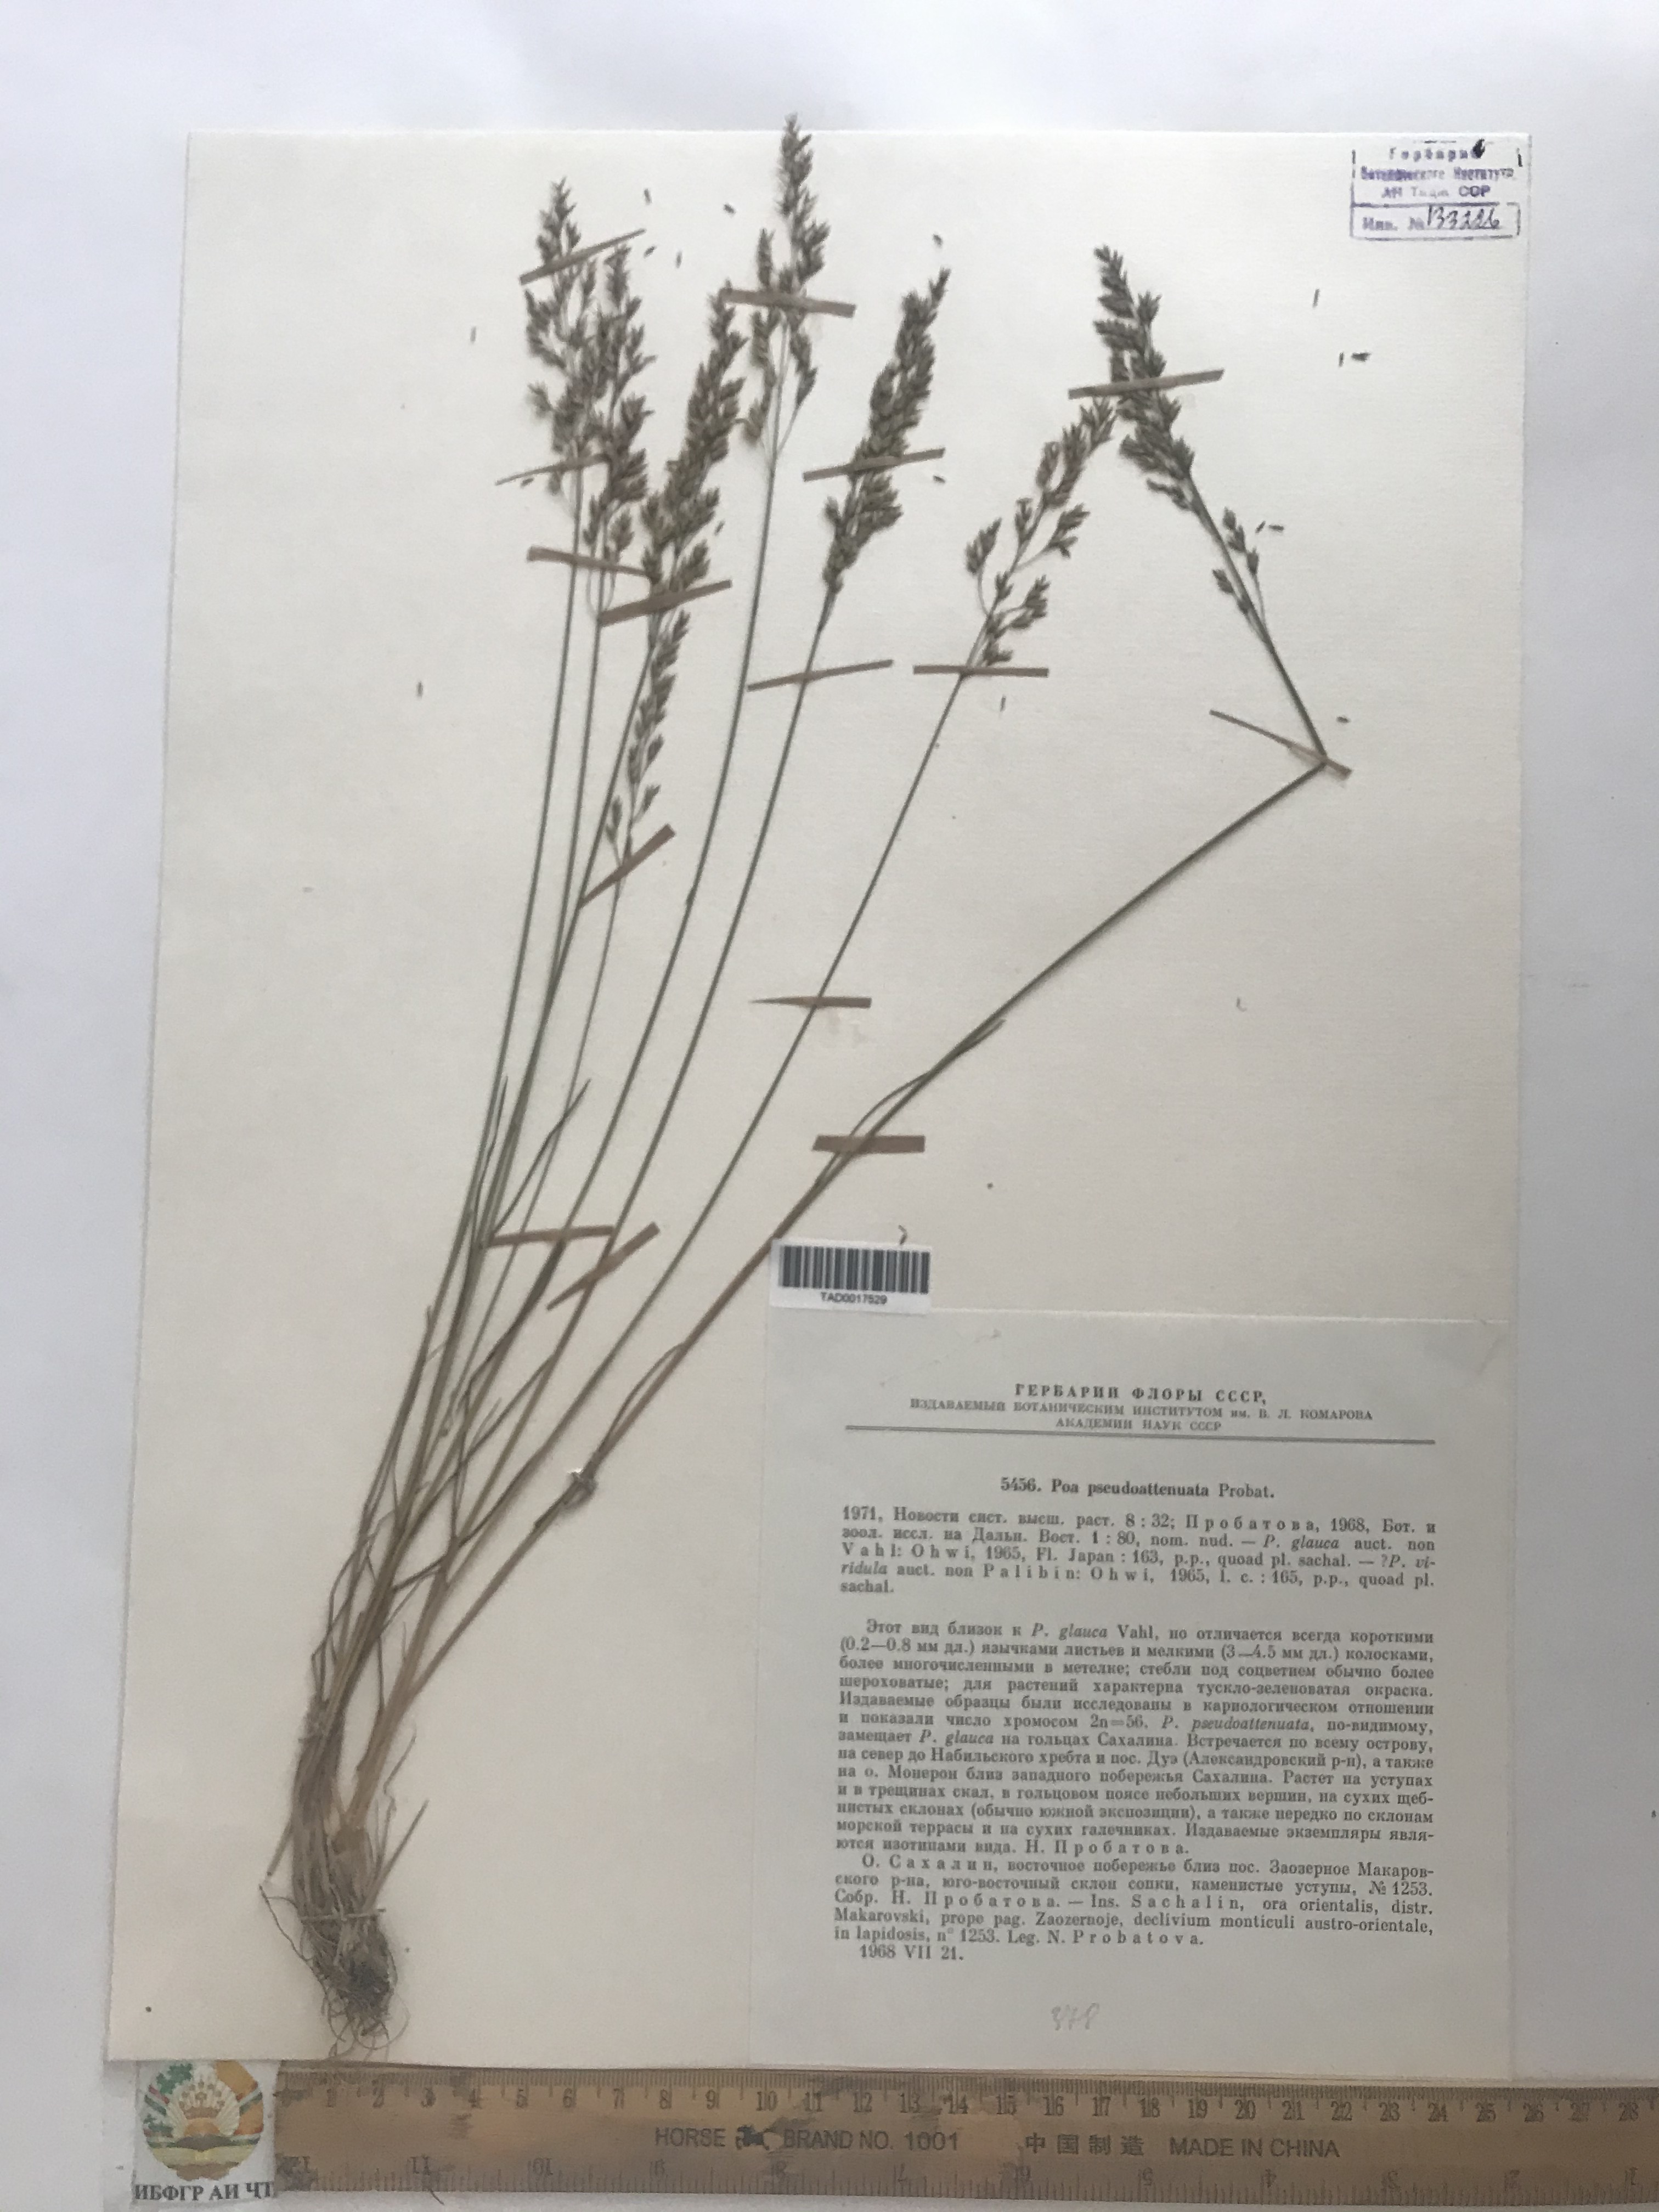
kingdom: Plantae
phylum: Tracheophyta
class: Liliopsida
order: Poales
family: Poaceae
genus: Poa
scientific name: Poa pseudoattenuata
